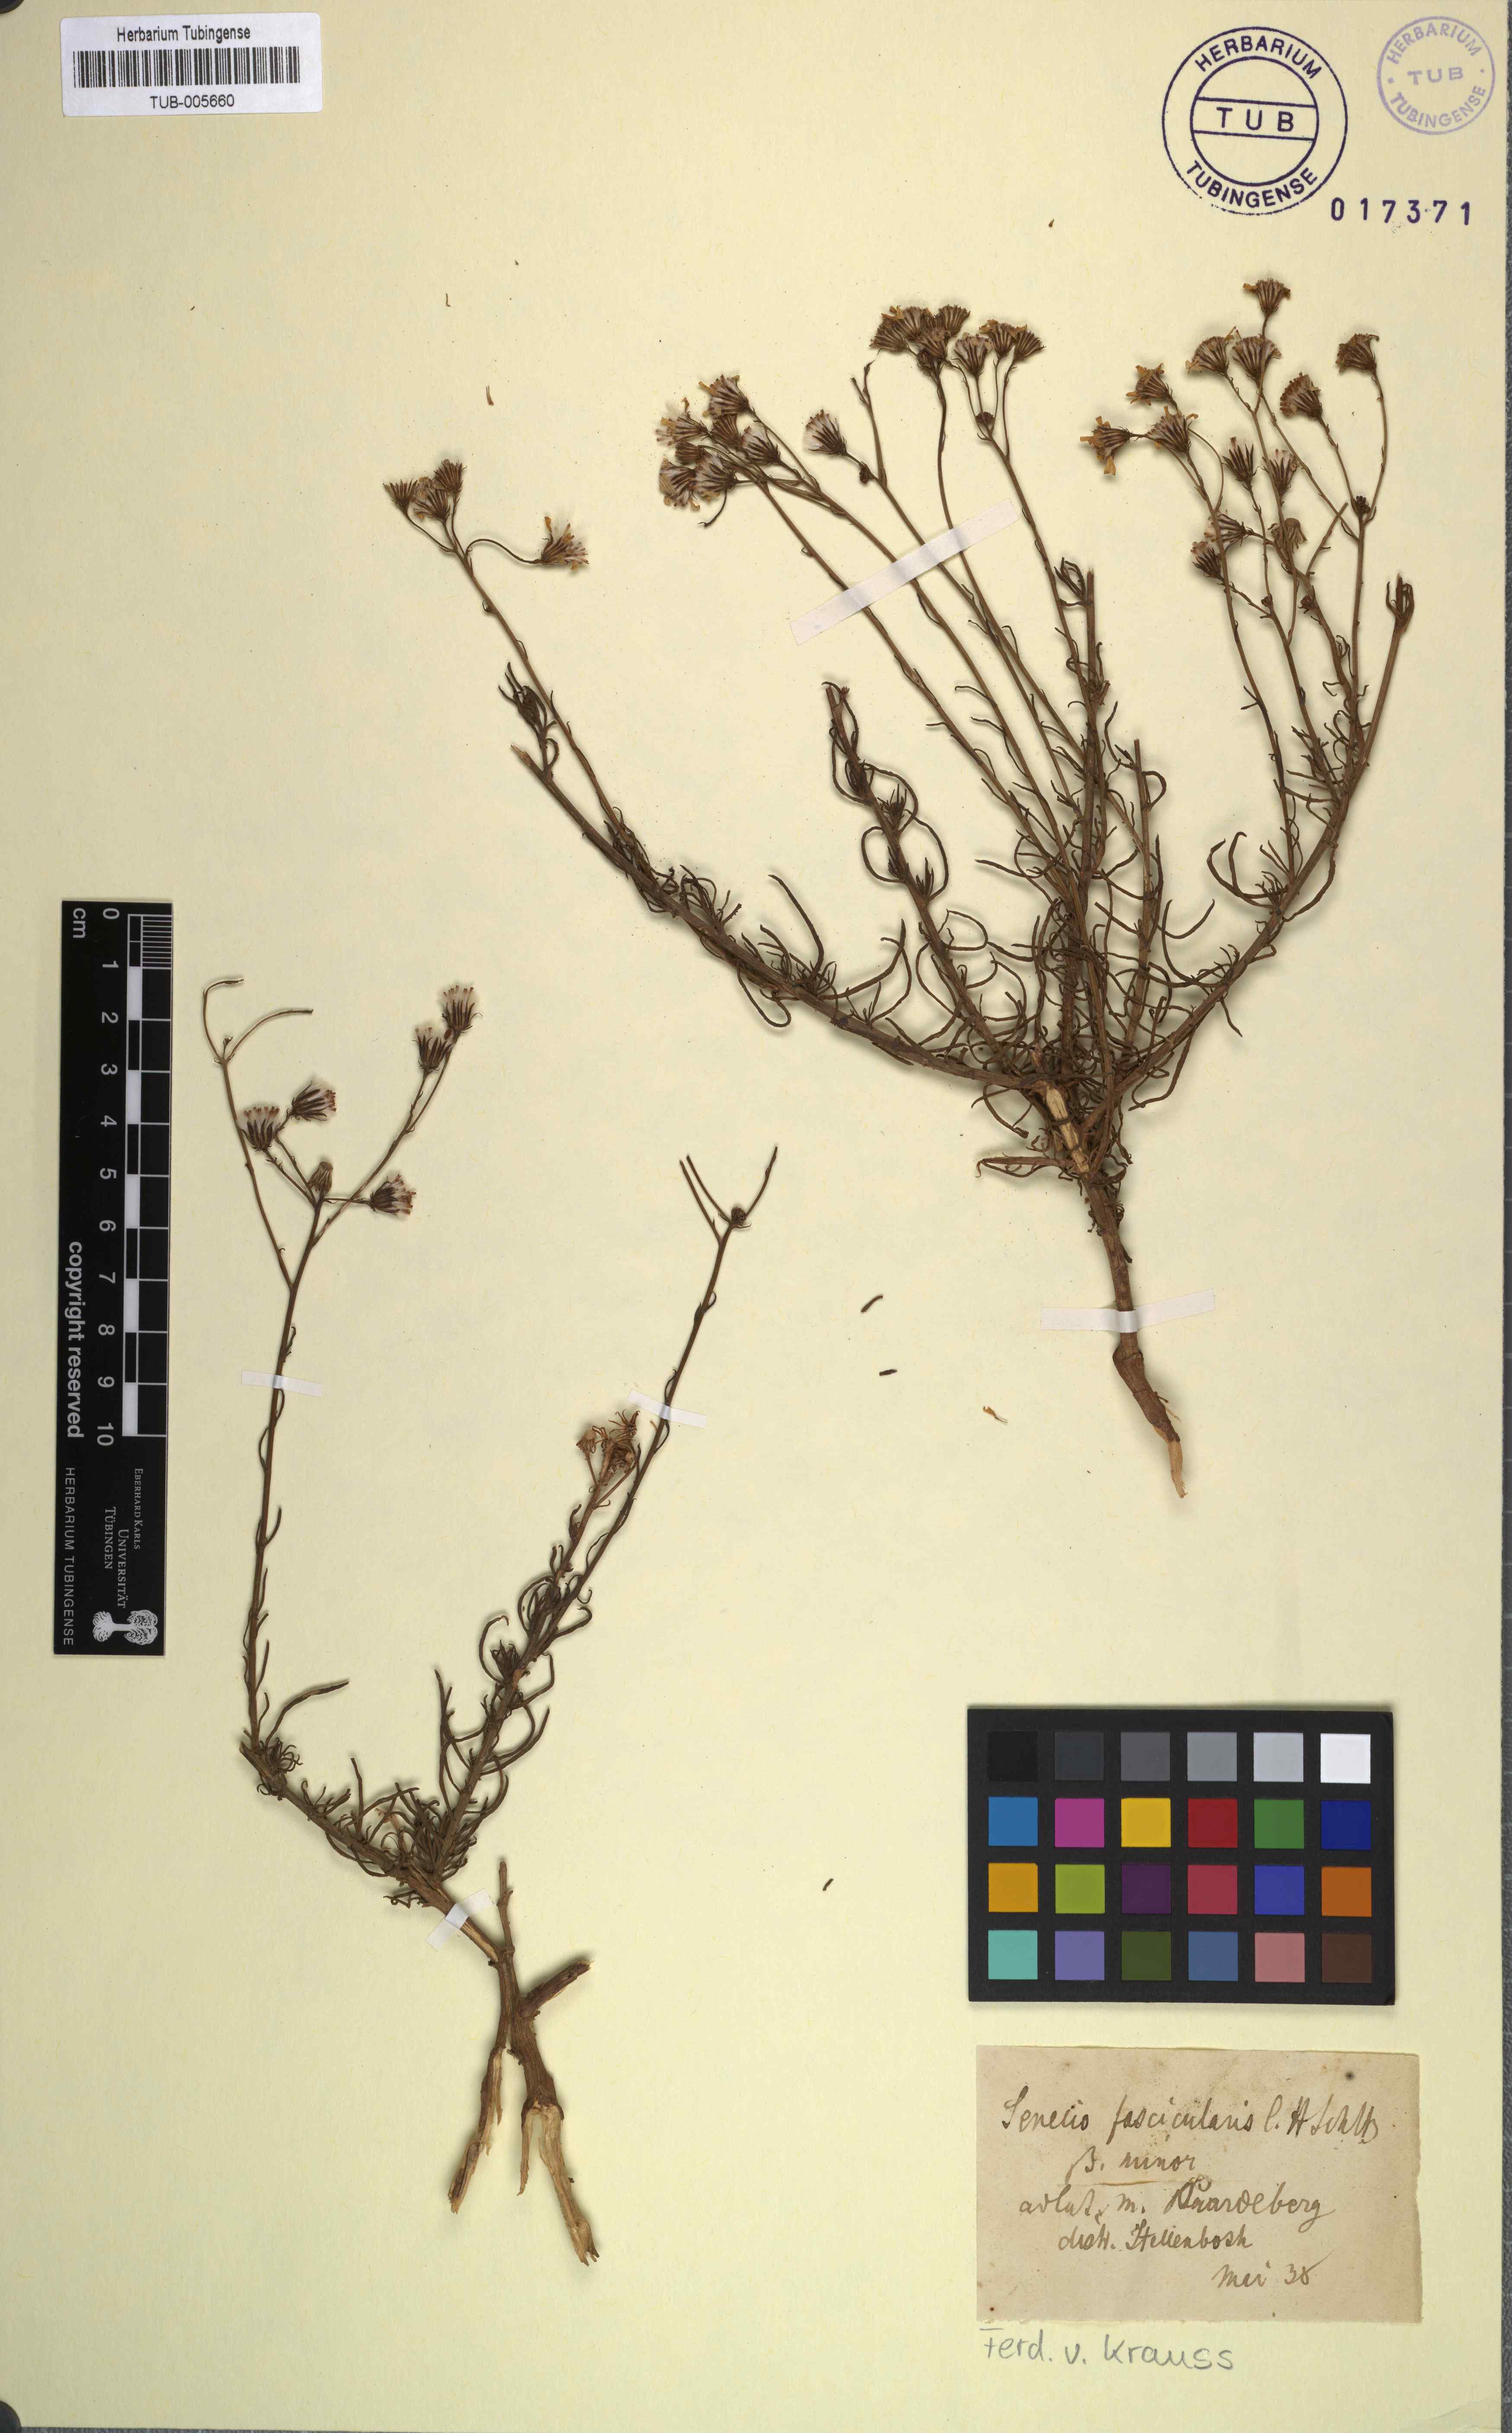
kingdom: Plantae
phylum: Tracheophyta
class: Magnoliopsida
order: Asterales
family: Asteraceae
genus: Senecio
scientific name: Senecio
